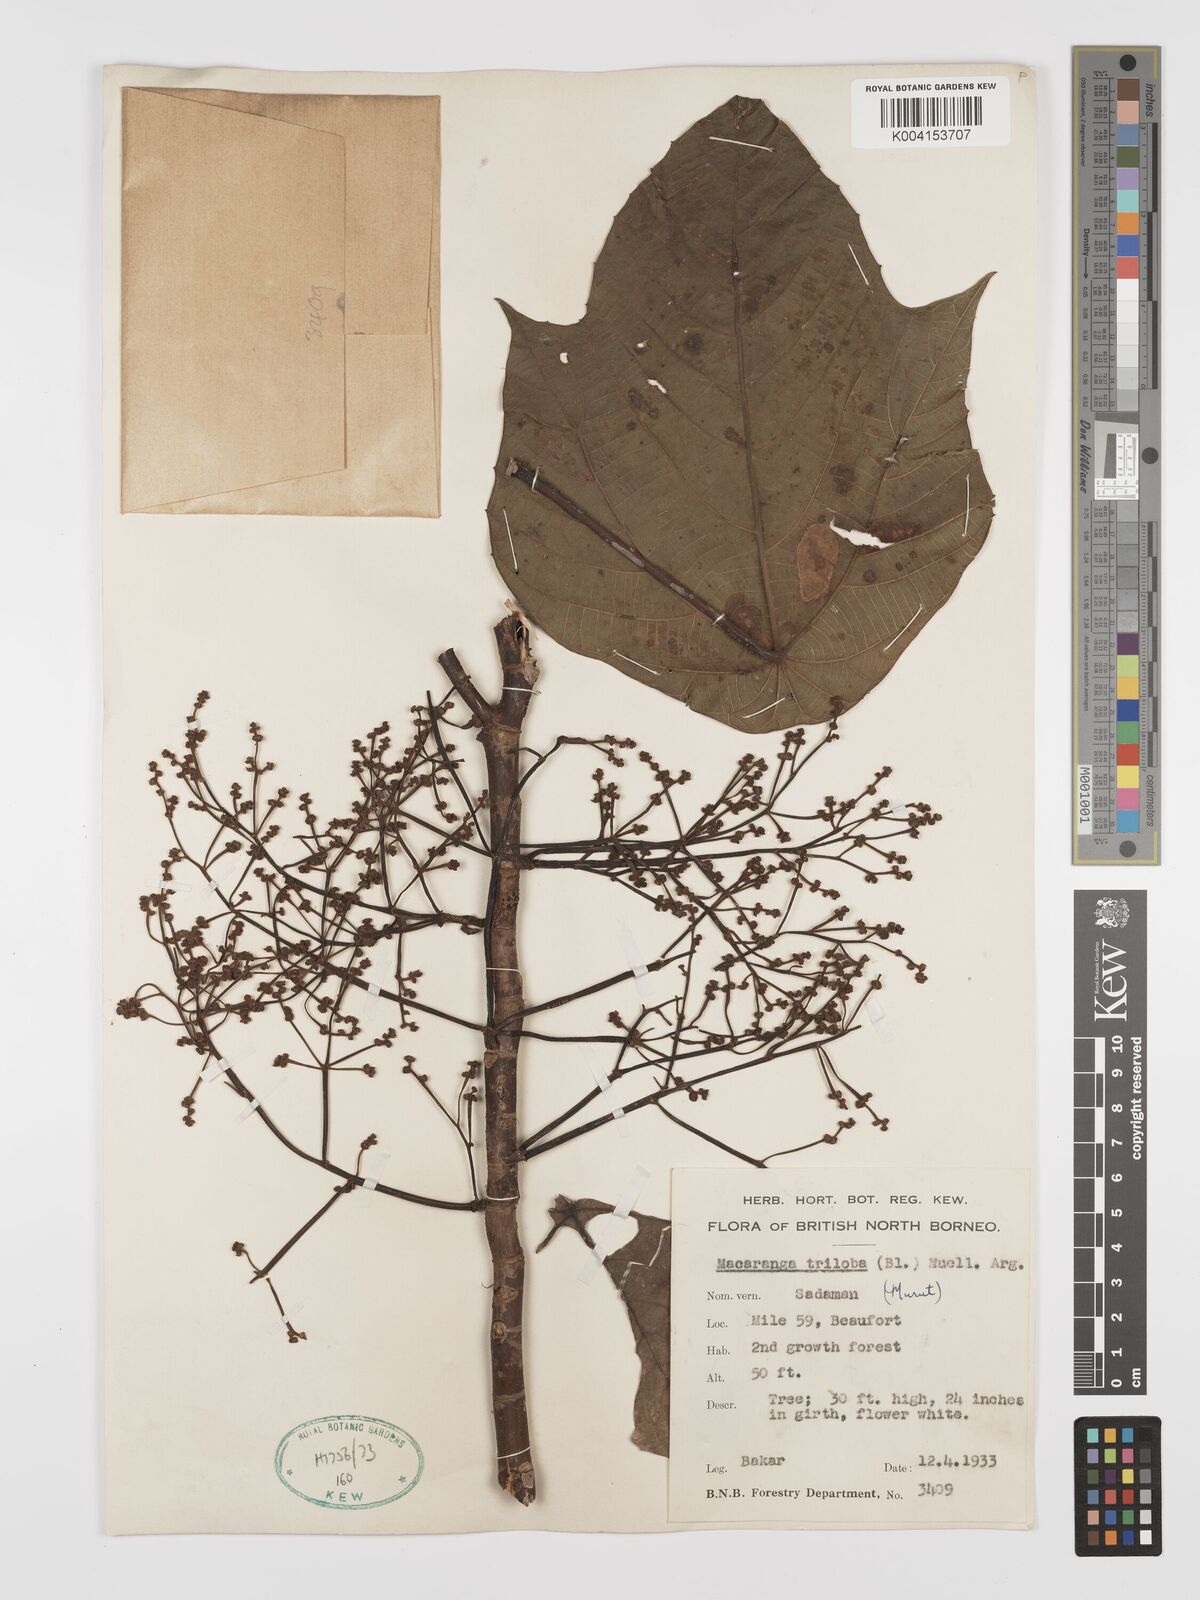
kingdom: Plantae
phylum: Tracheophyta
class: Magnoliopsida
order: Malpighiales
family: Euphorbiaceae
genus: Macaranga
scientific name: Macaranga triloba
